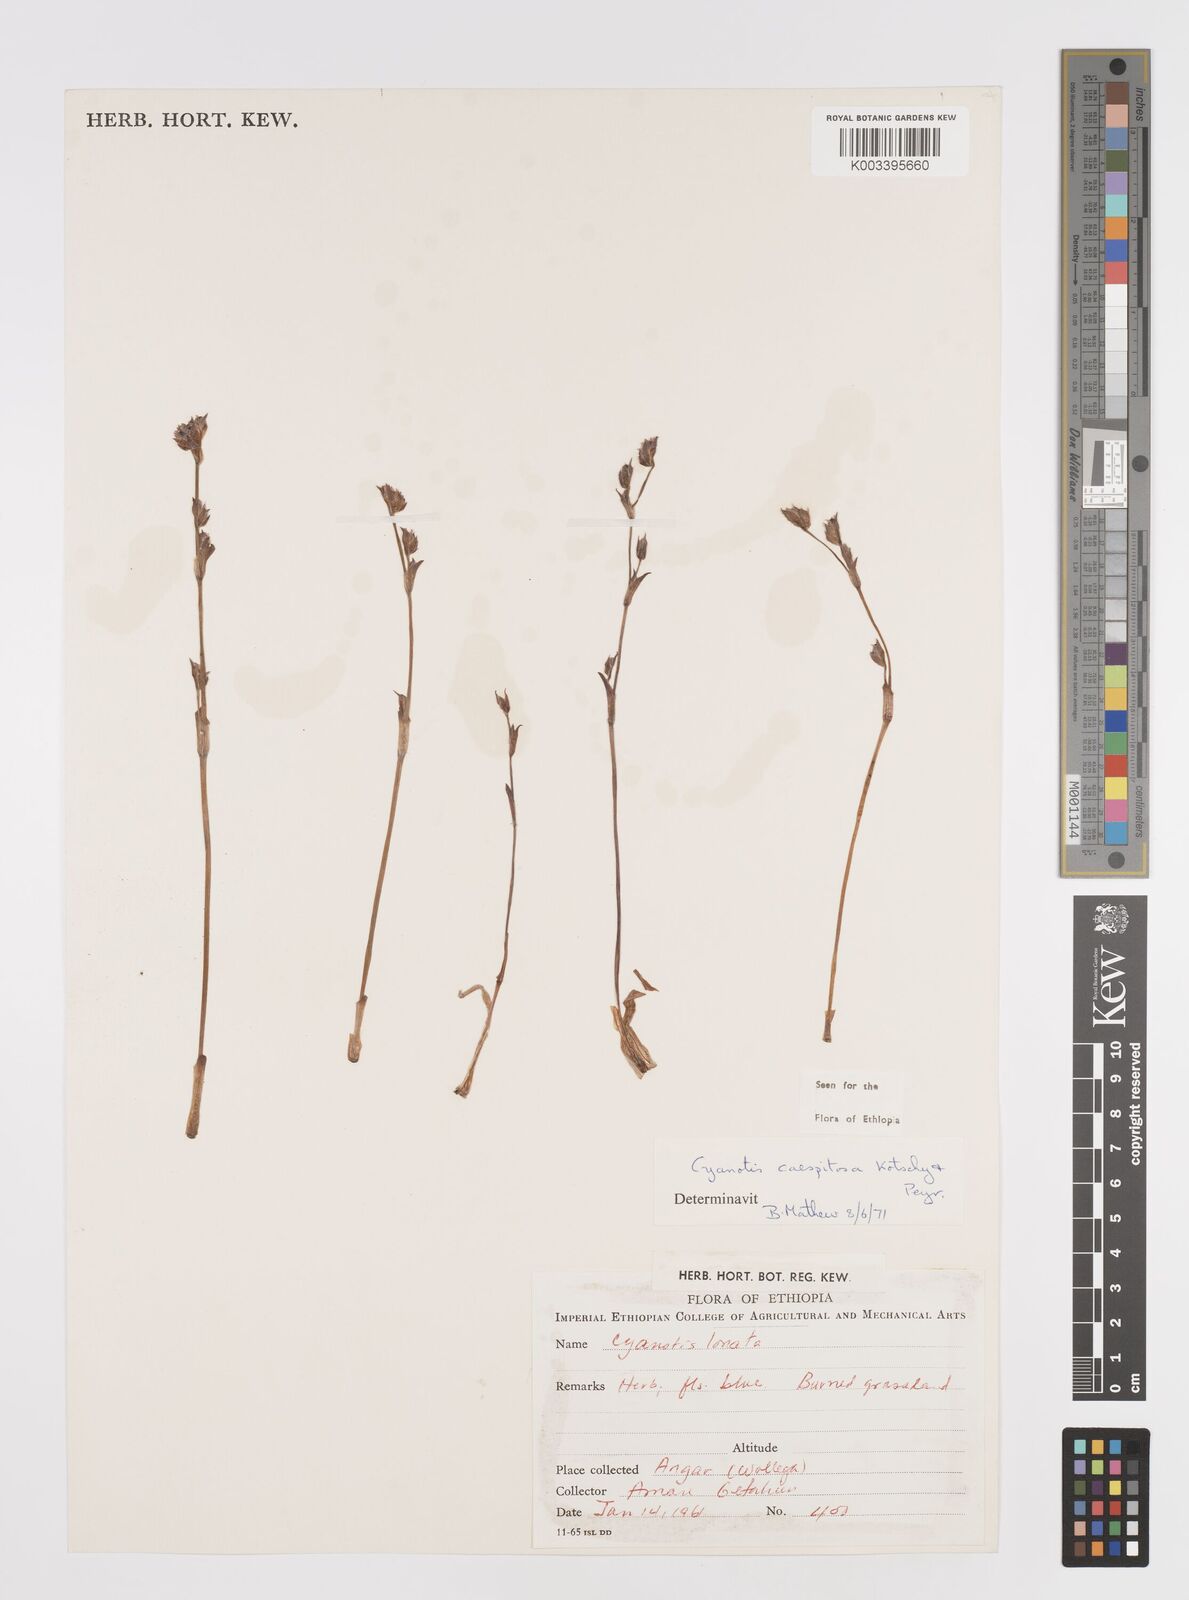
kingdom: Plantae
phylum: Tracheophyta
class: Liliopsida
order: Commelinales
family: Commelinaceae
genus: Cyanotis
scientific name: Cyanotis caespitosa
